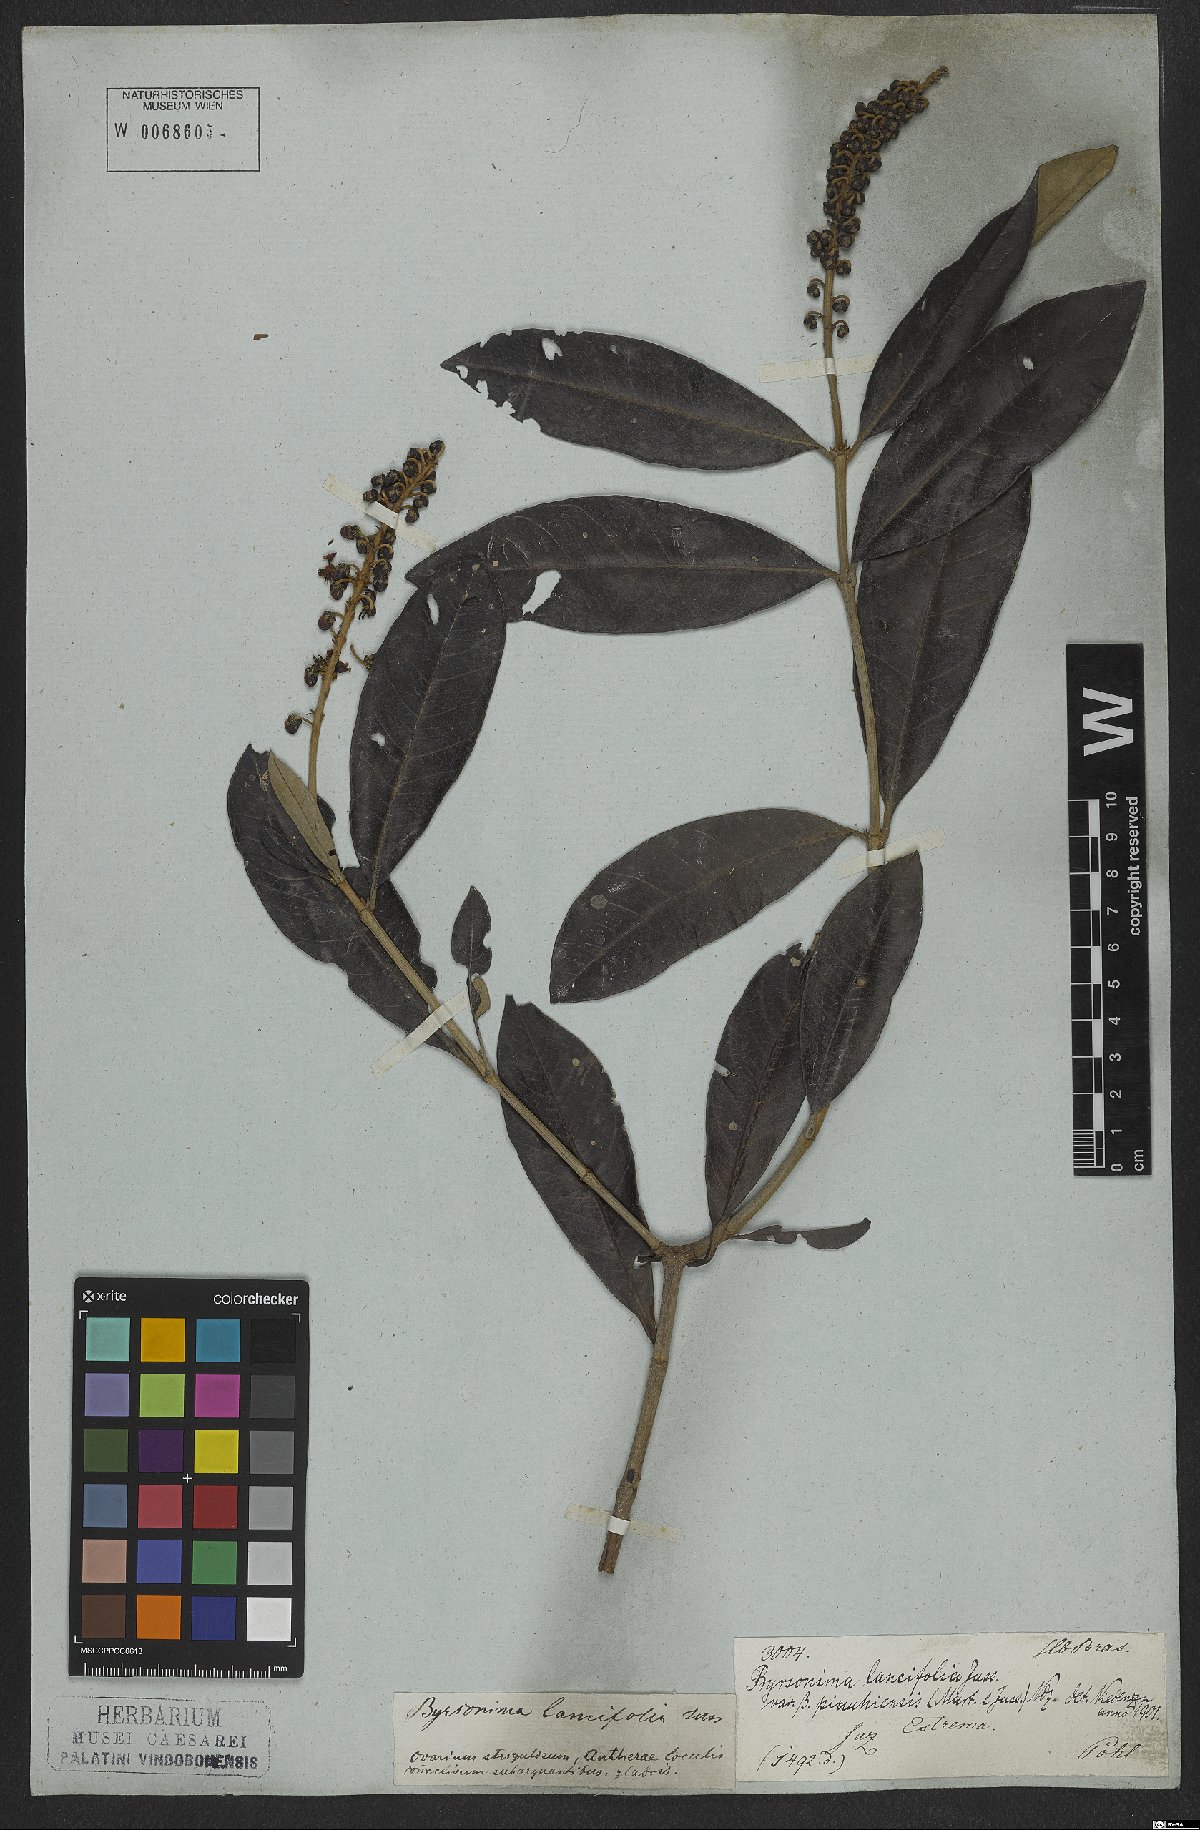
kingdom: Plantae
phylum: Tracheophyta
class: Magnoliopsida
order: Malpighiales
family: Malpighiaceae
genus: Byrsonima
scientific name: Byrsonima lancifolia
